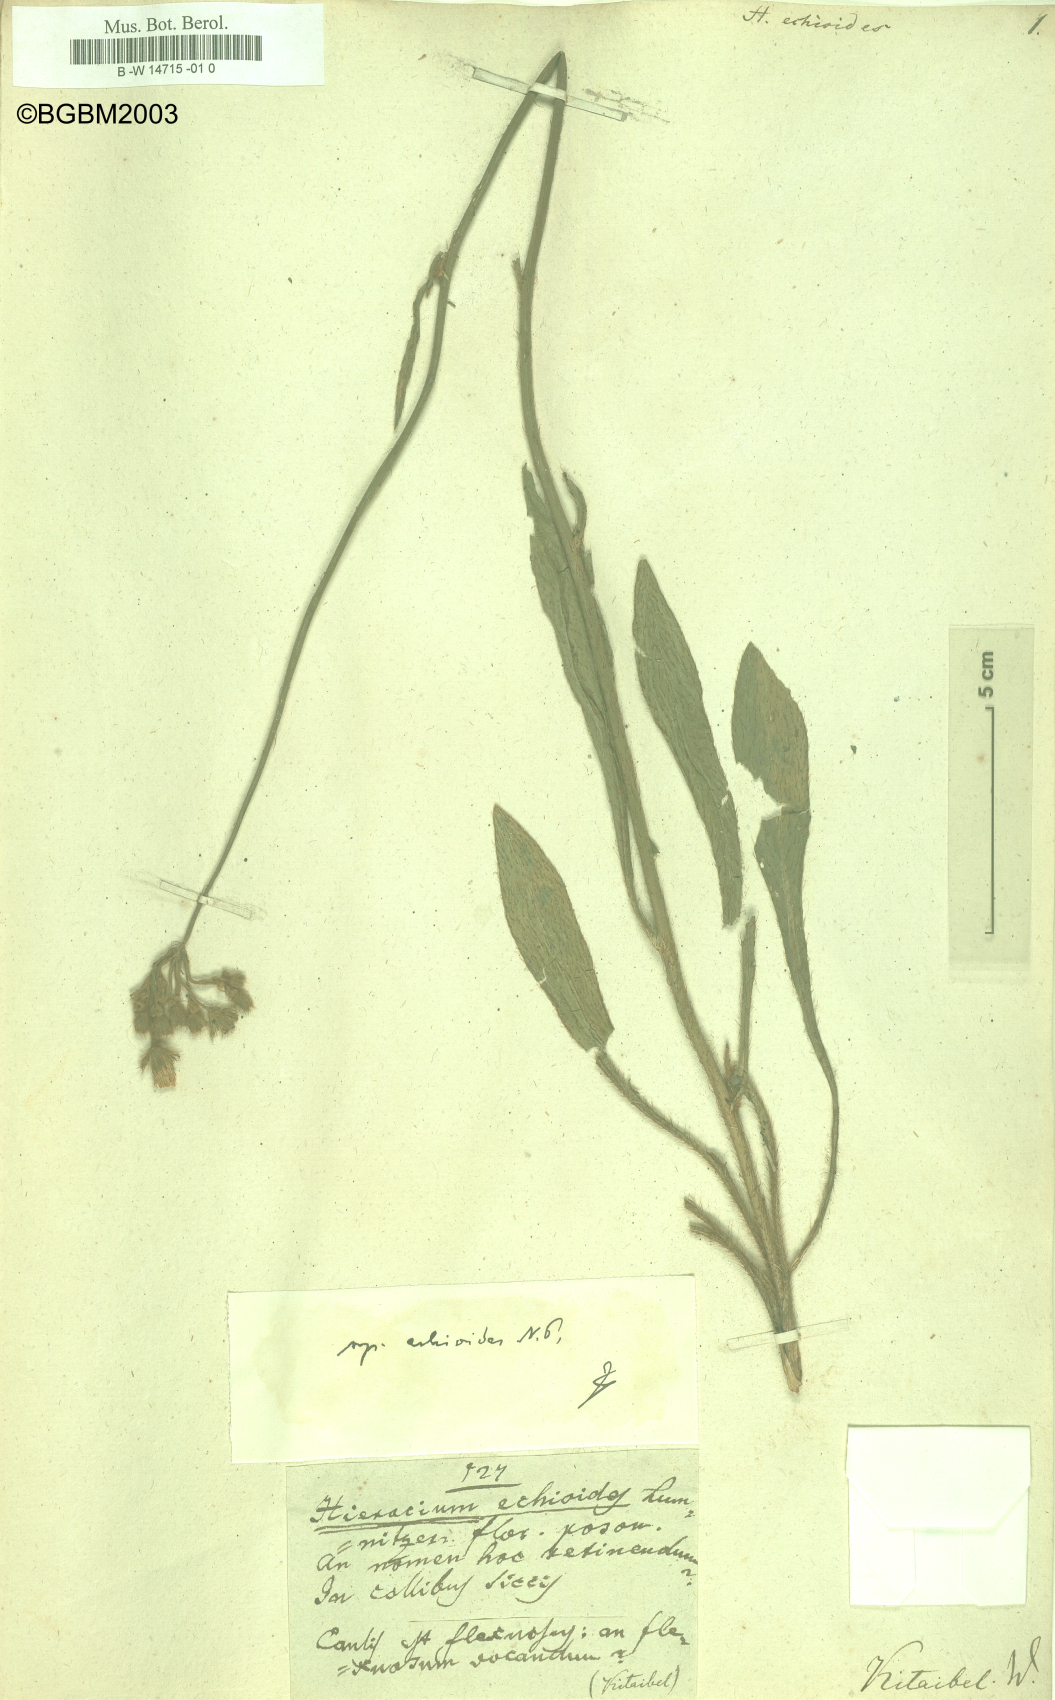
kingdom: Plantae
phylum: Tracheophyta
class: Magnoliopsida
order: Asterales
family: Asteraceae
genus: Pilosella
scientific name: Pilosella echioides
